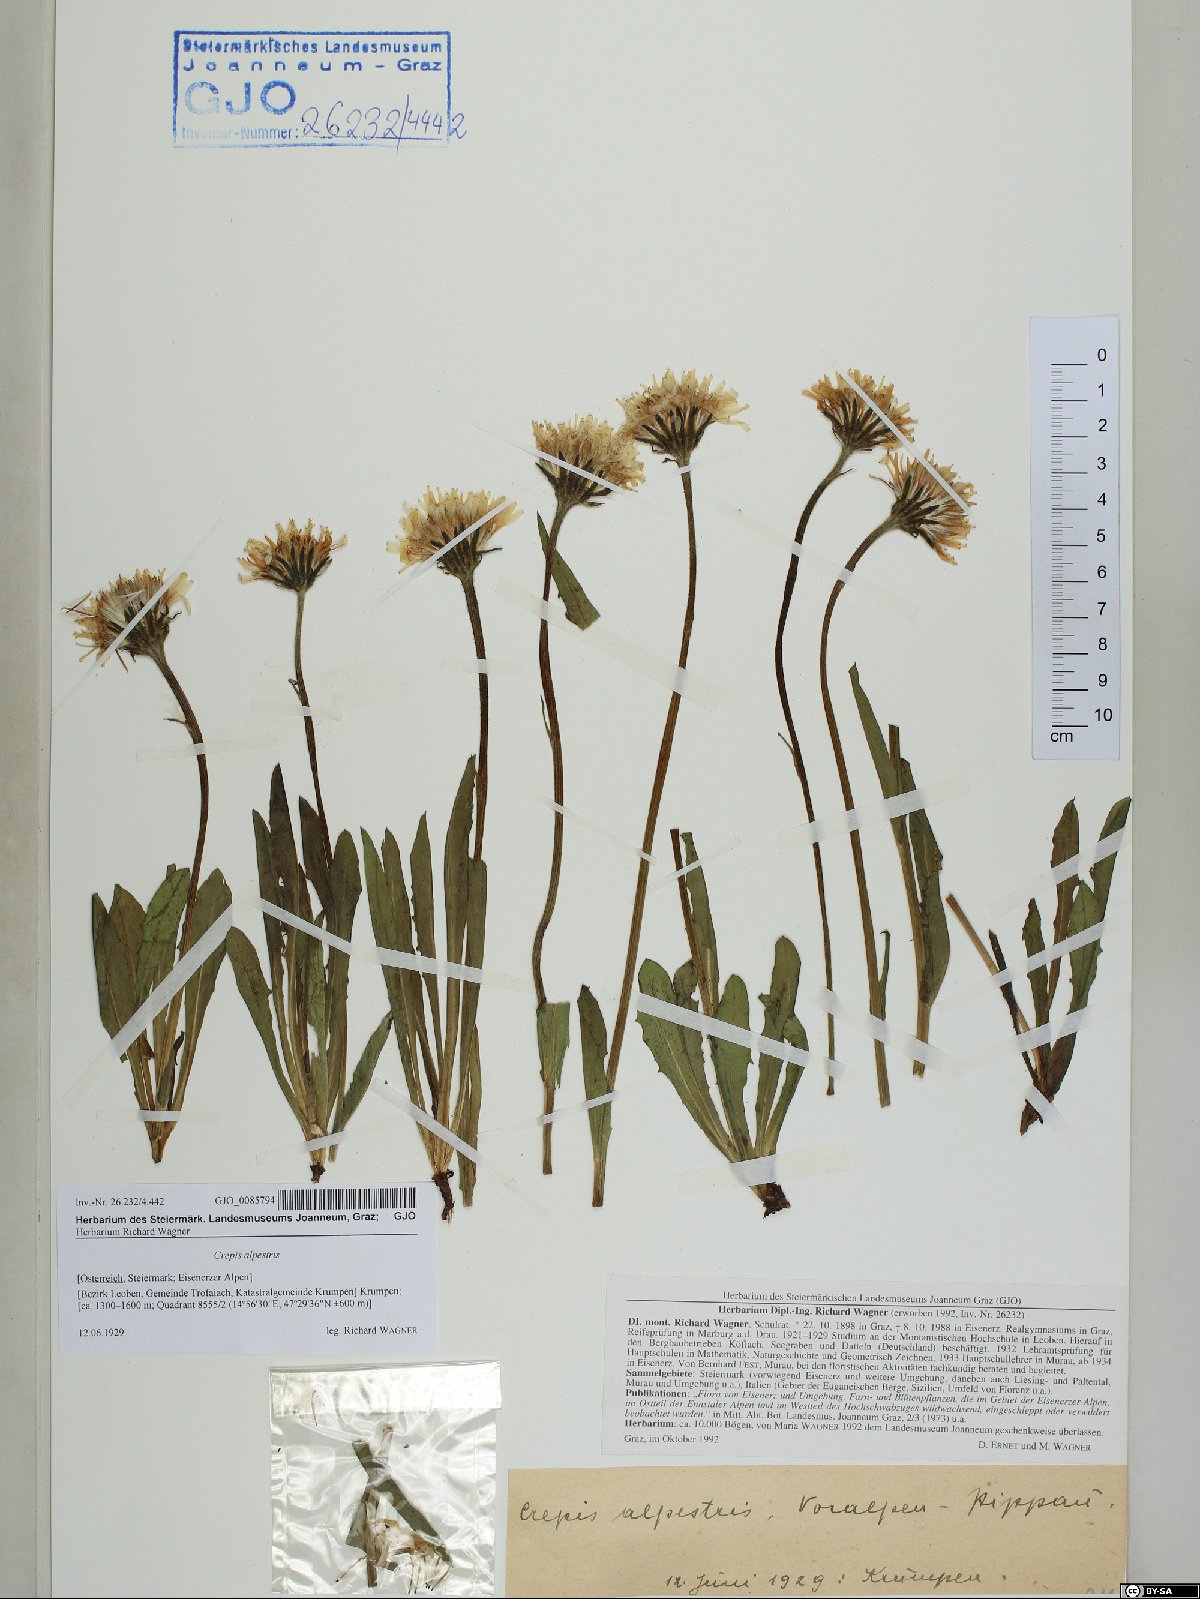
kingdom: Plantae
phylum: Tracheophyta
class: Magnoliopsida
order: Asterales
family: Asteraceae
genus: Crepis
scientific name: Crepis alpestris
